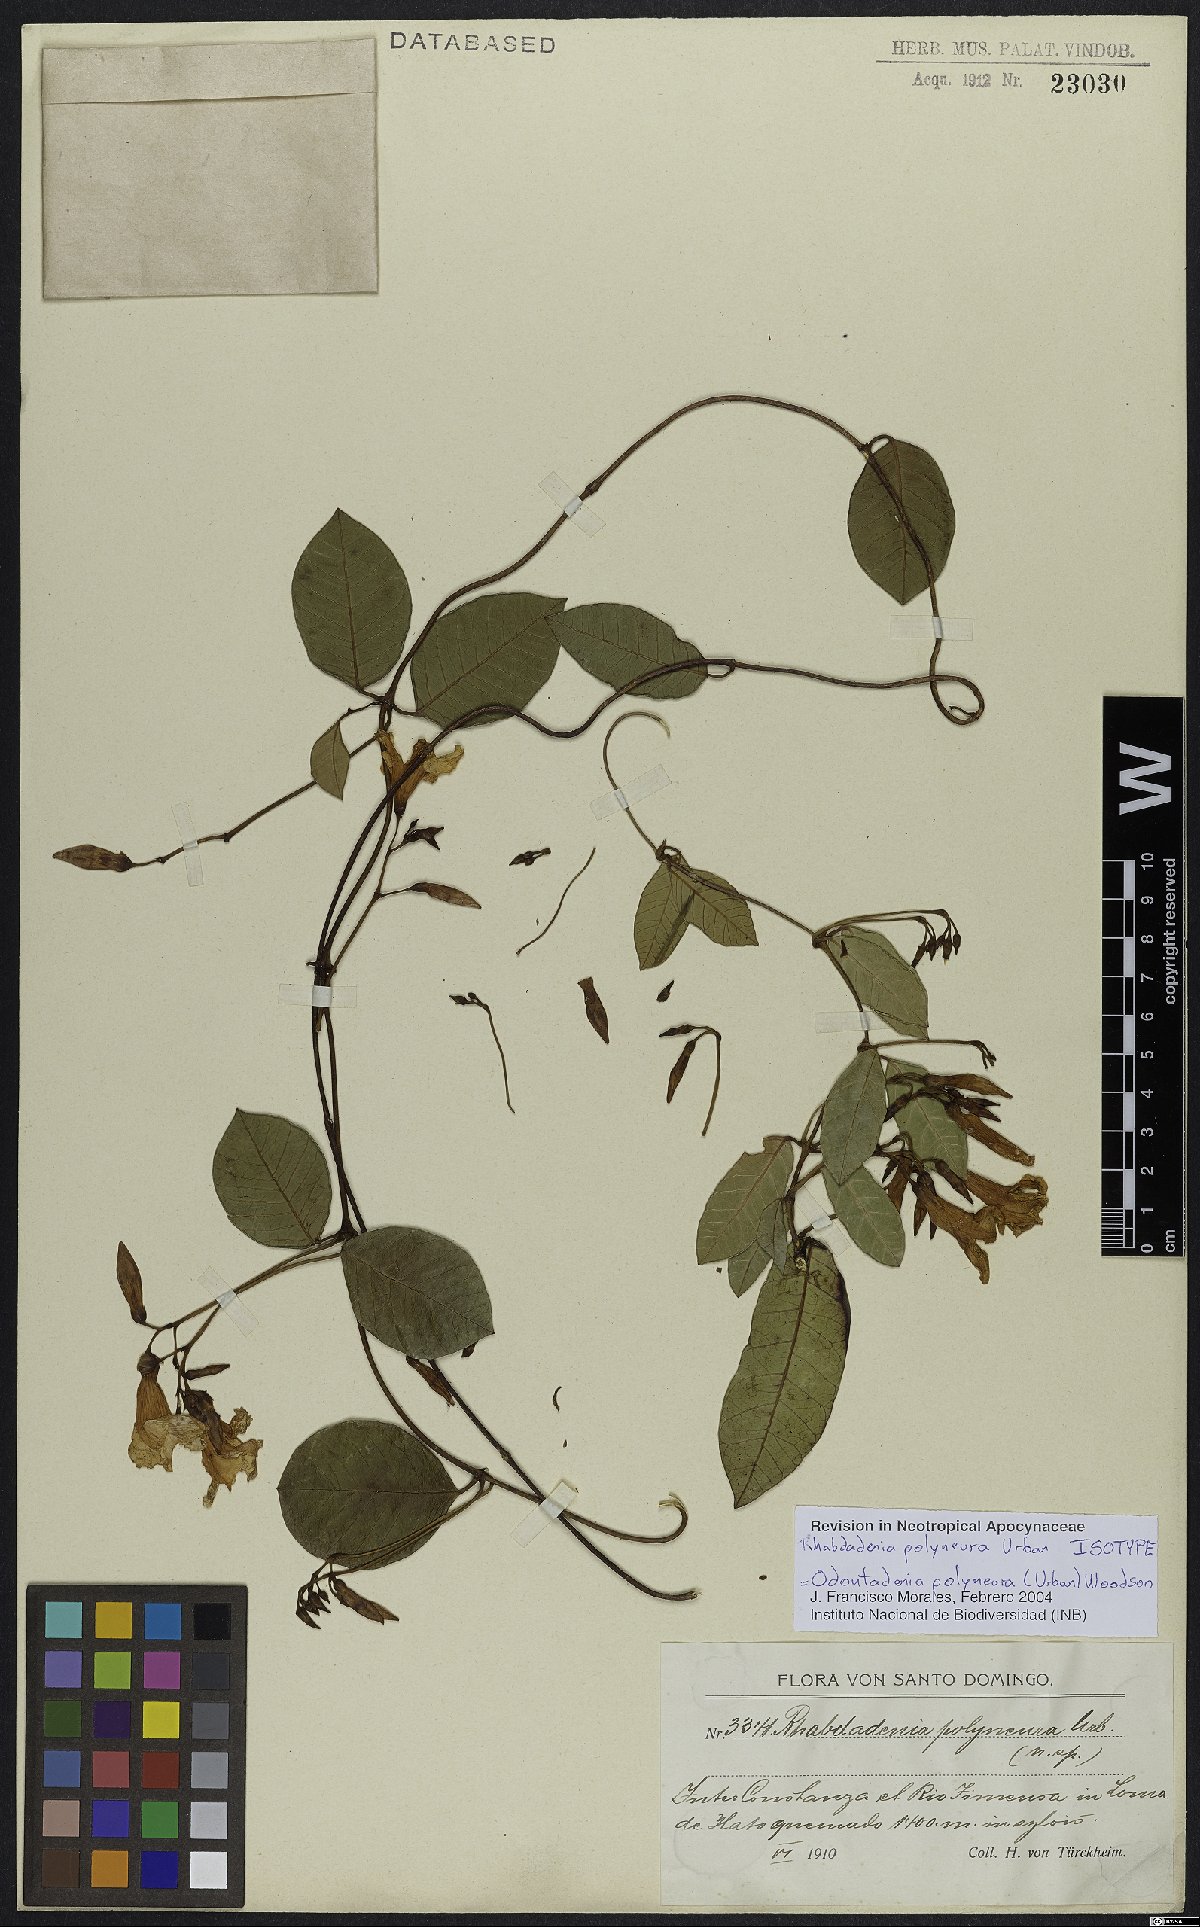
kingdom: Plantae
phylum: Tracheophyta
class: Magnoliopsida
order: Gentianales
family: Apocynaceae
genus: Odontadenia
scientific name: Odontadenia polyneura
